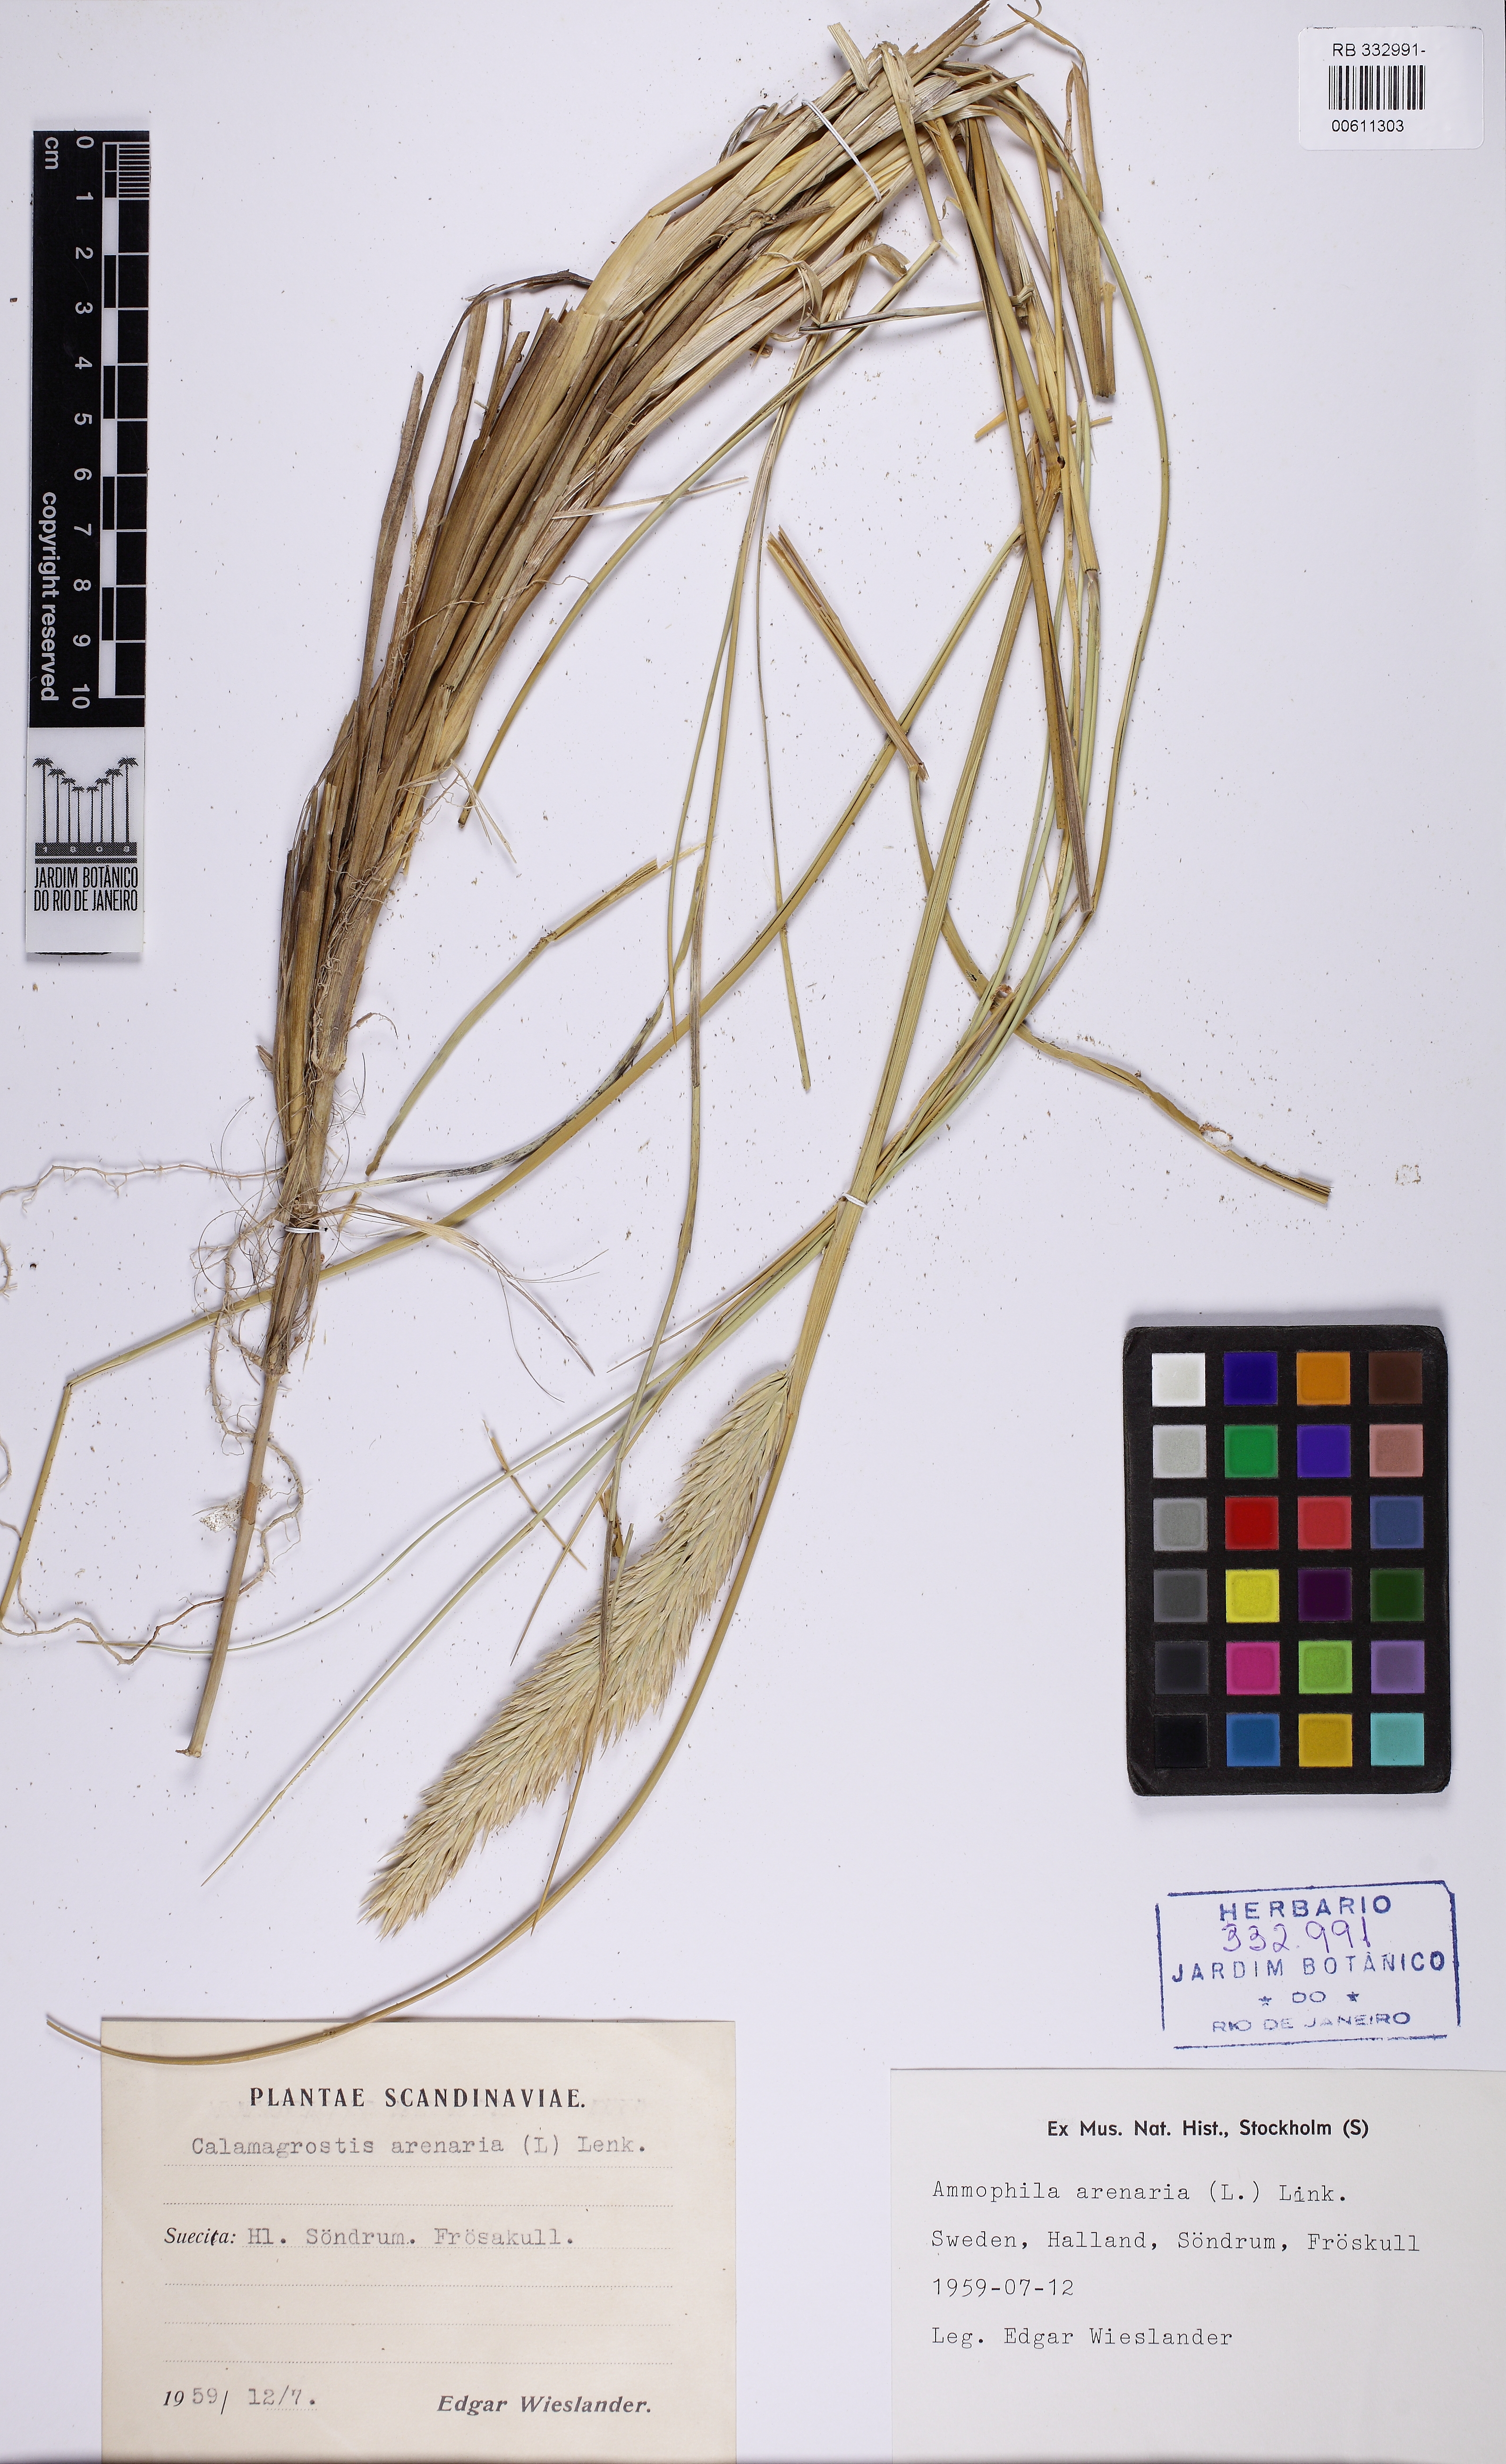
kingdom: Plantae
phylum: Tracheophyta
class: Liliopsida
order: Poales
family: Poaceae
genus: Calamagrostis
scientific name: Calamagrostis arenaria
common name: European beachgrass
